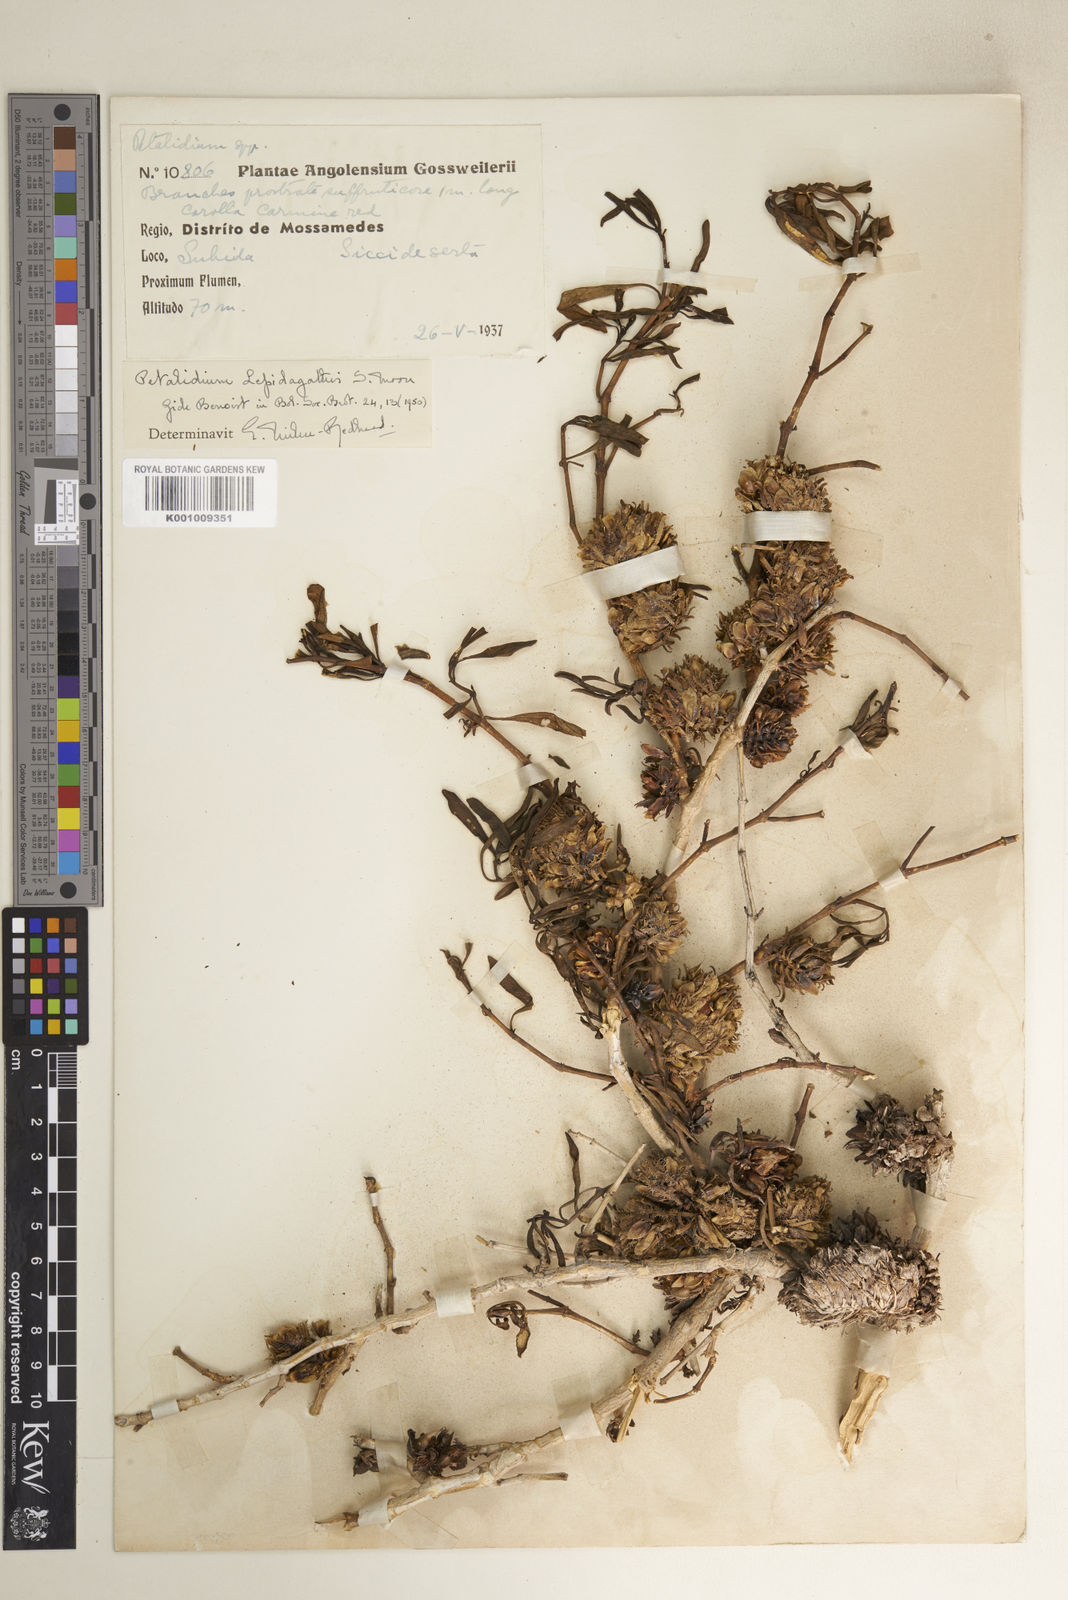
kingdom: Plantae
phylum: Tracheophyta
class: Magnoliopsida
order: Lamiales
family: Acanthaceae
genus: Petalidium
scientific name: Petalidium lepidagathis
